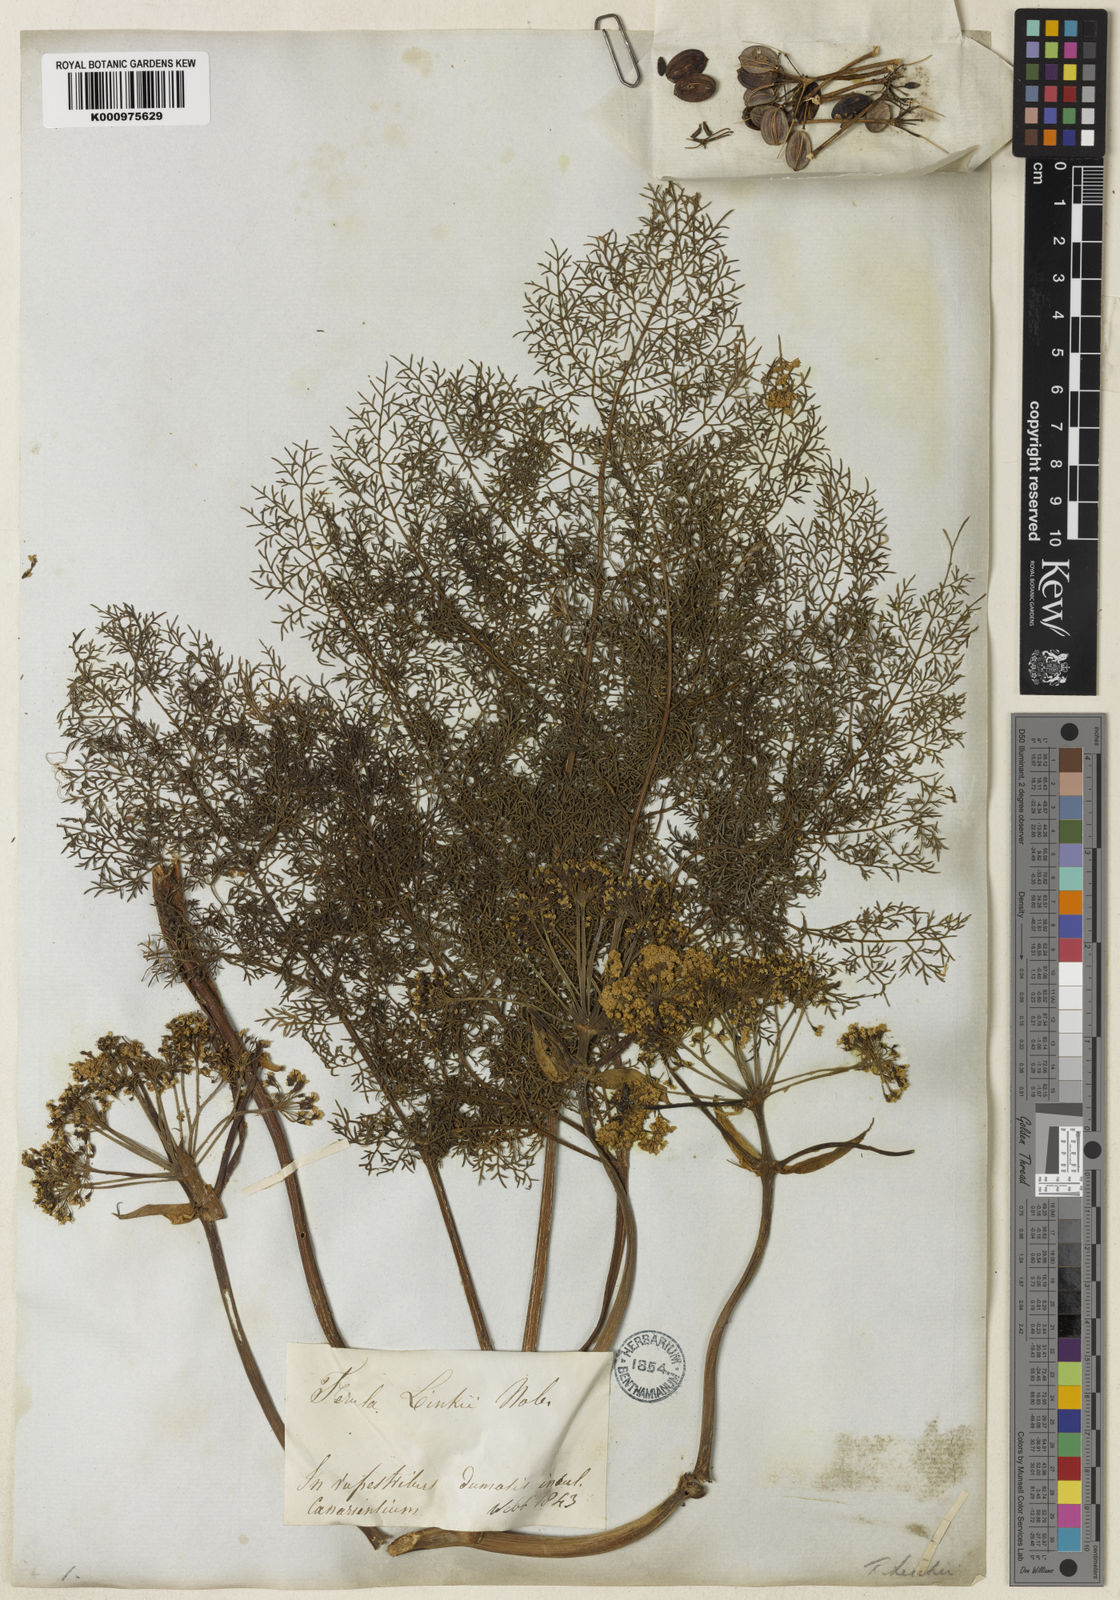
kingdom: Plantae
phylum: Tracheophyta
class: Magnoliopsida
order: Apiales
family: Apiaceae
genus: Ferula
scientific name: Ferula communis
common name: Giant fennel
